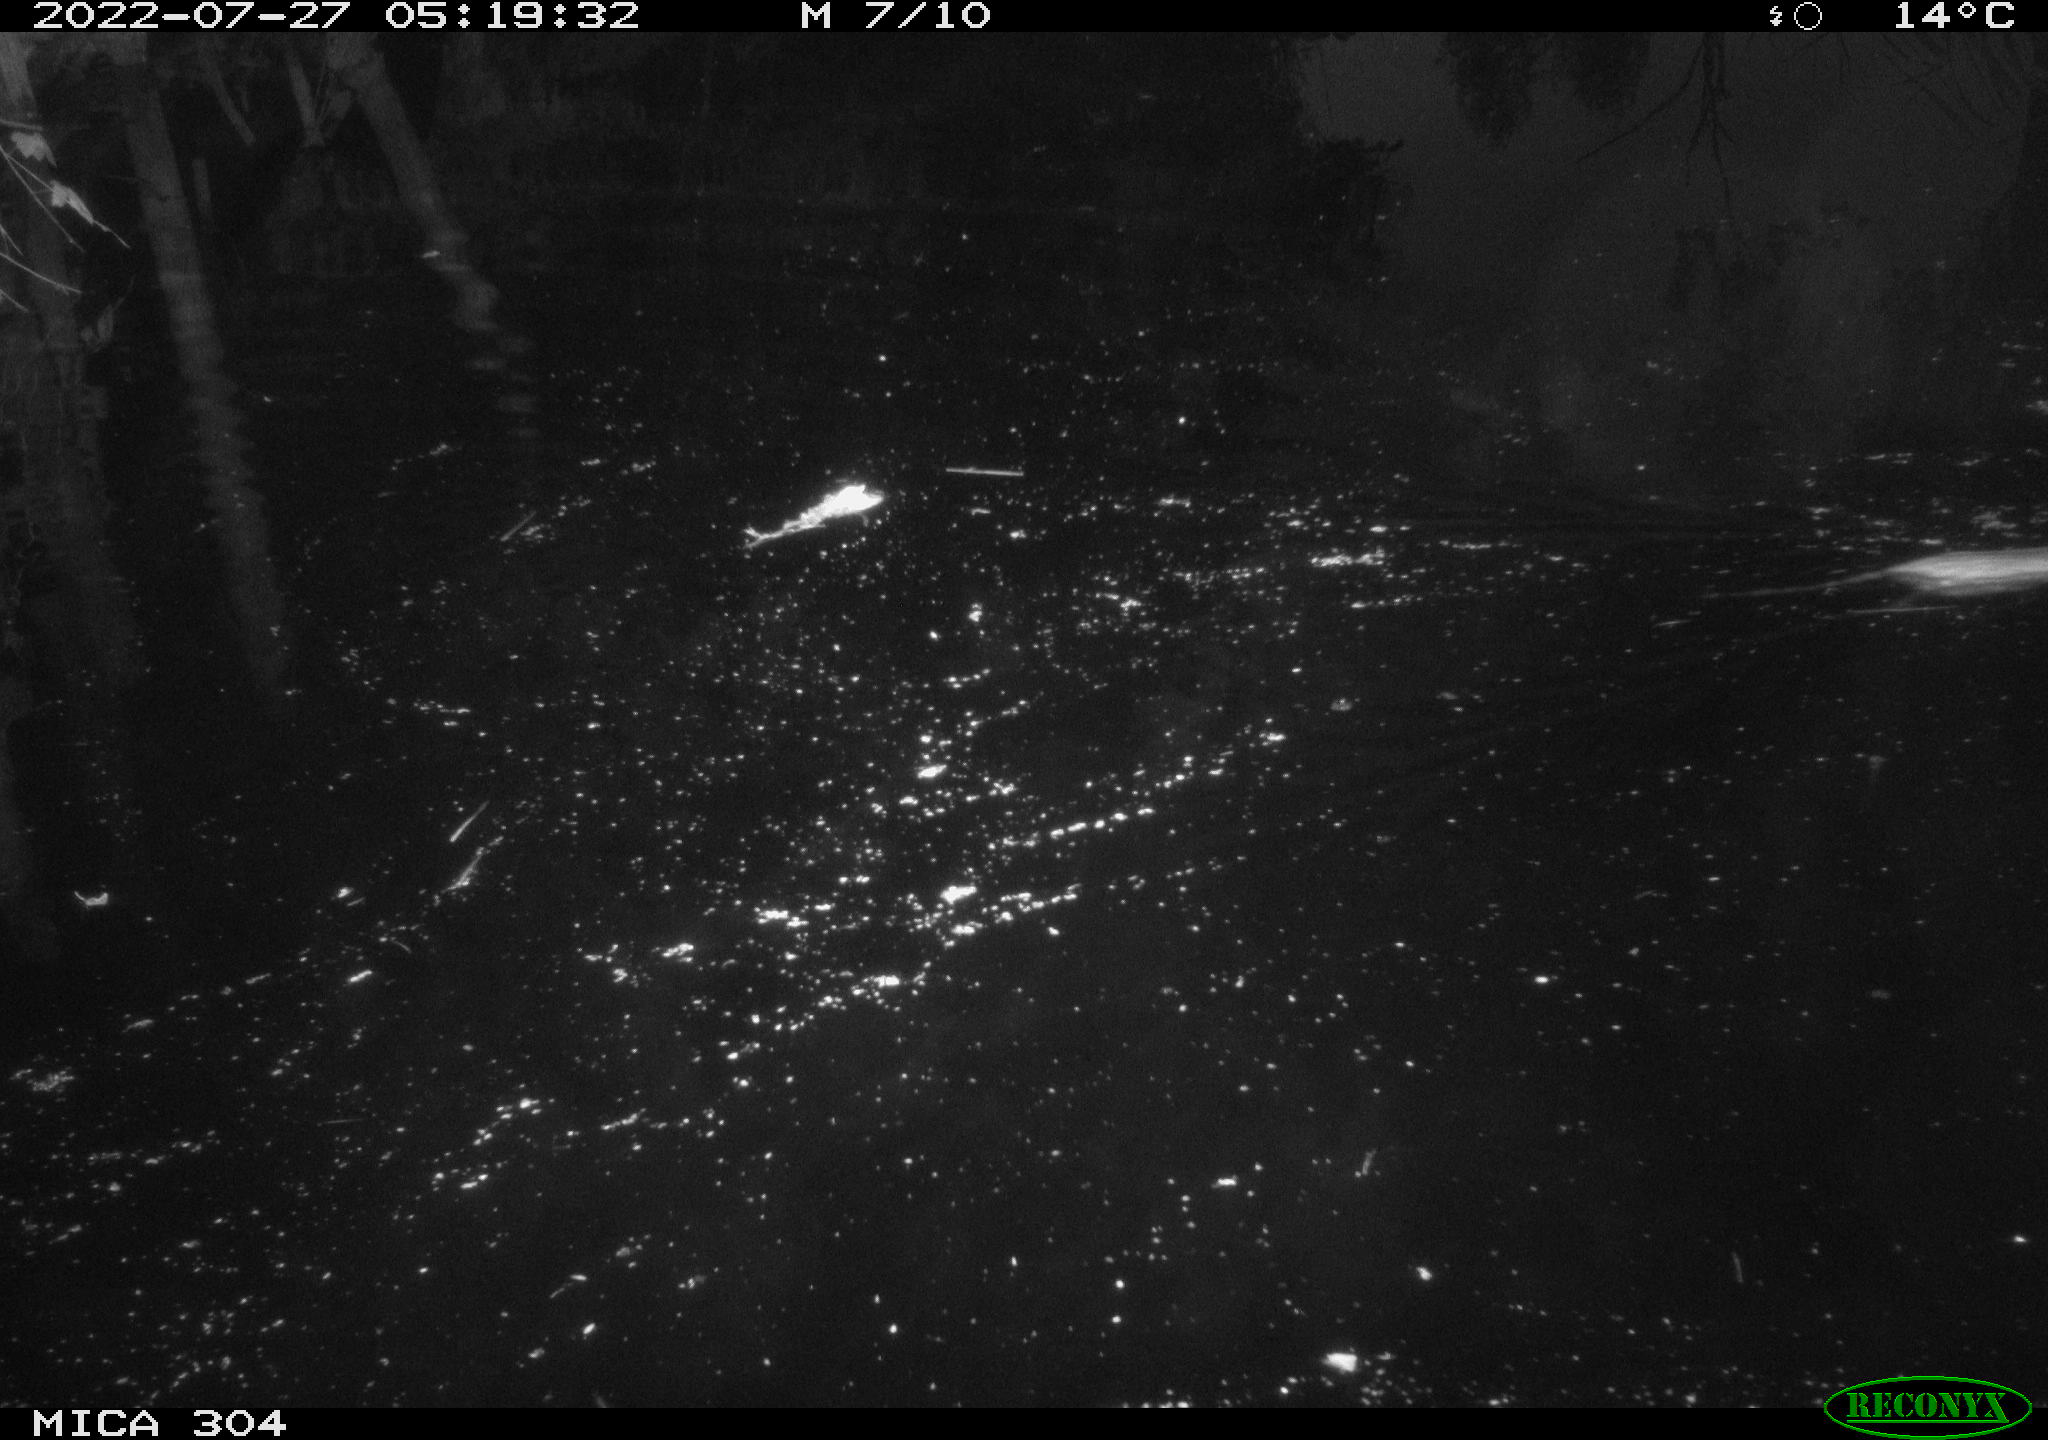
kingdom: Animalia
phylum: Chordata
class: Mammalia
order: Rodentia
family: Muridae
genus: Rattus
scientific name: Rattus norvegicus
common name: Brown rat
